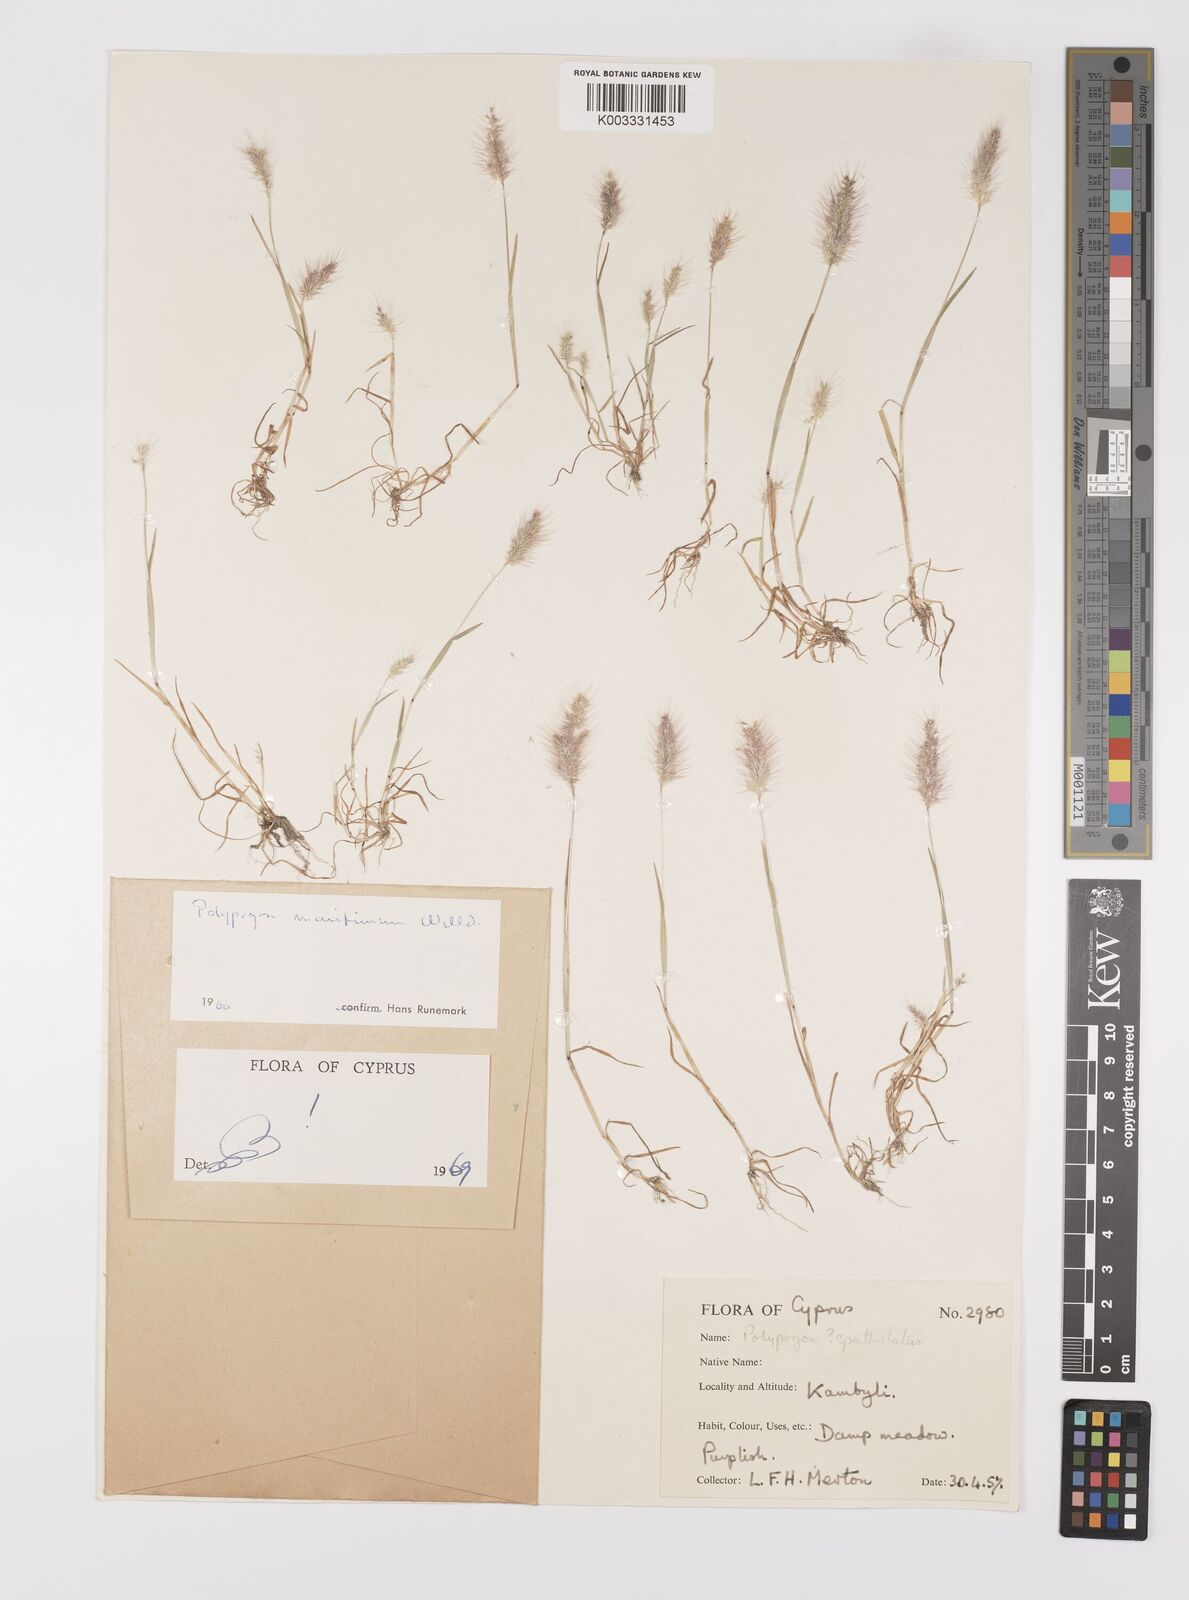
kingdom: Plantae
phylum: Tracheophyta
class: Liliopsida
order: Poales
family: Poaceae
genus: Polypogon
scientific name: Polypogon maritimus
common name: Mediterranean rabbitsfoot grass
